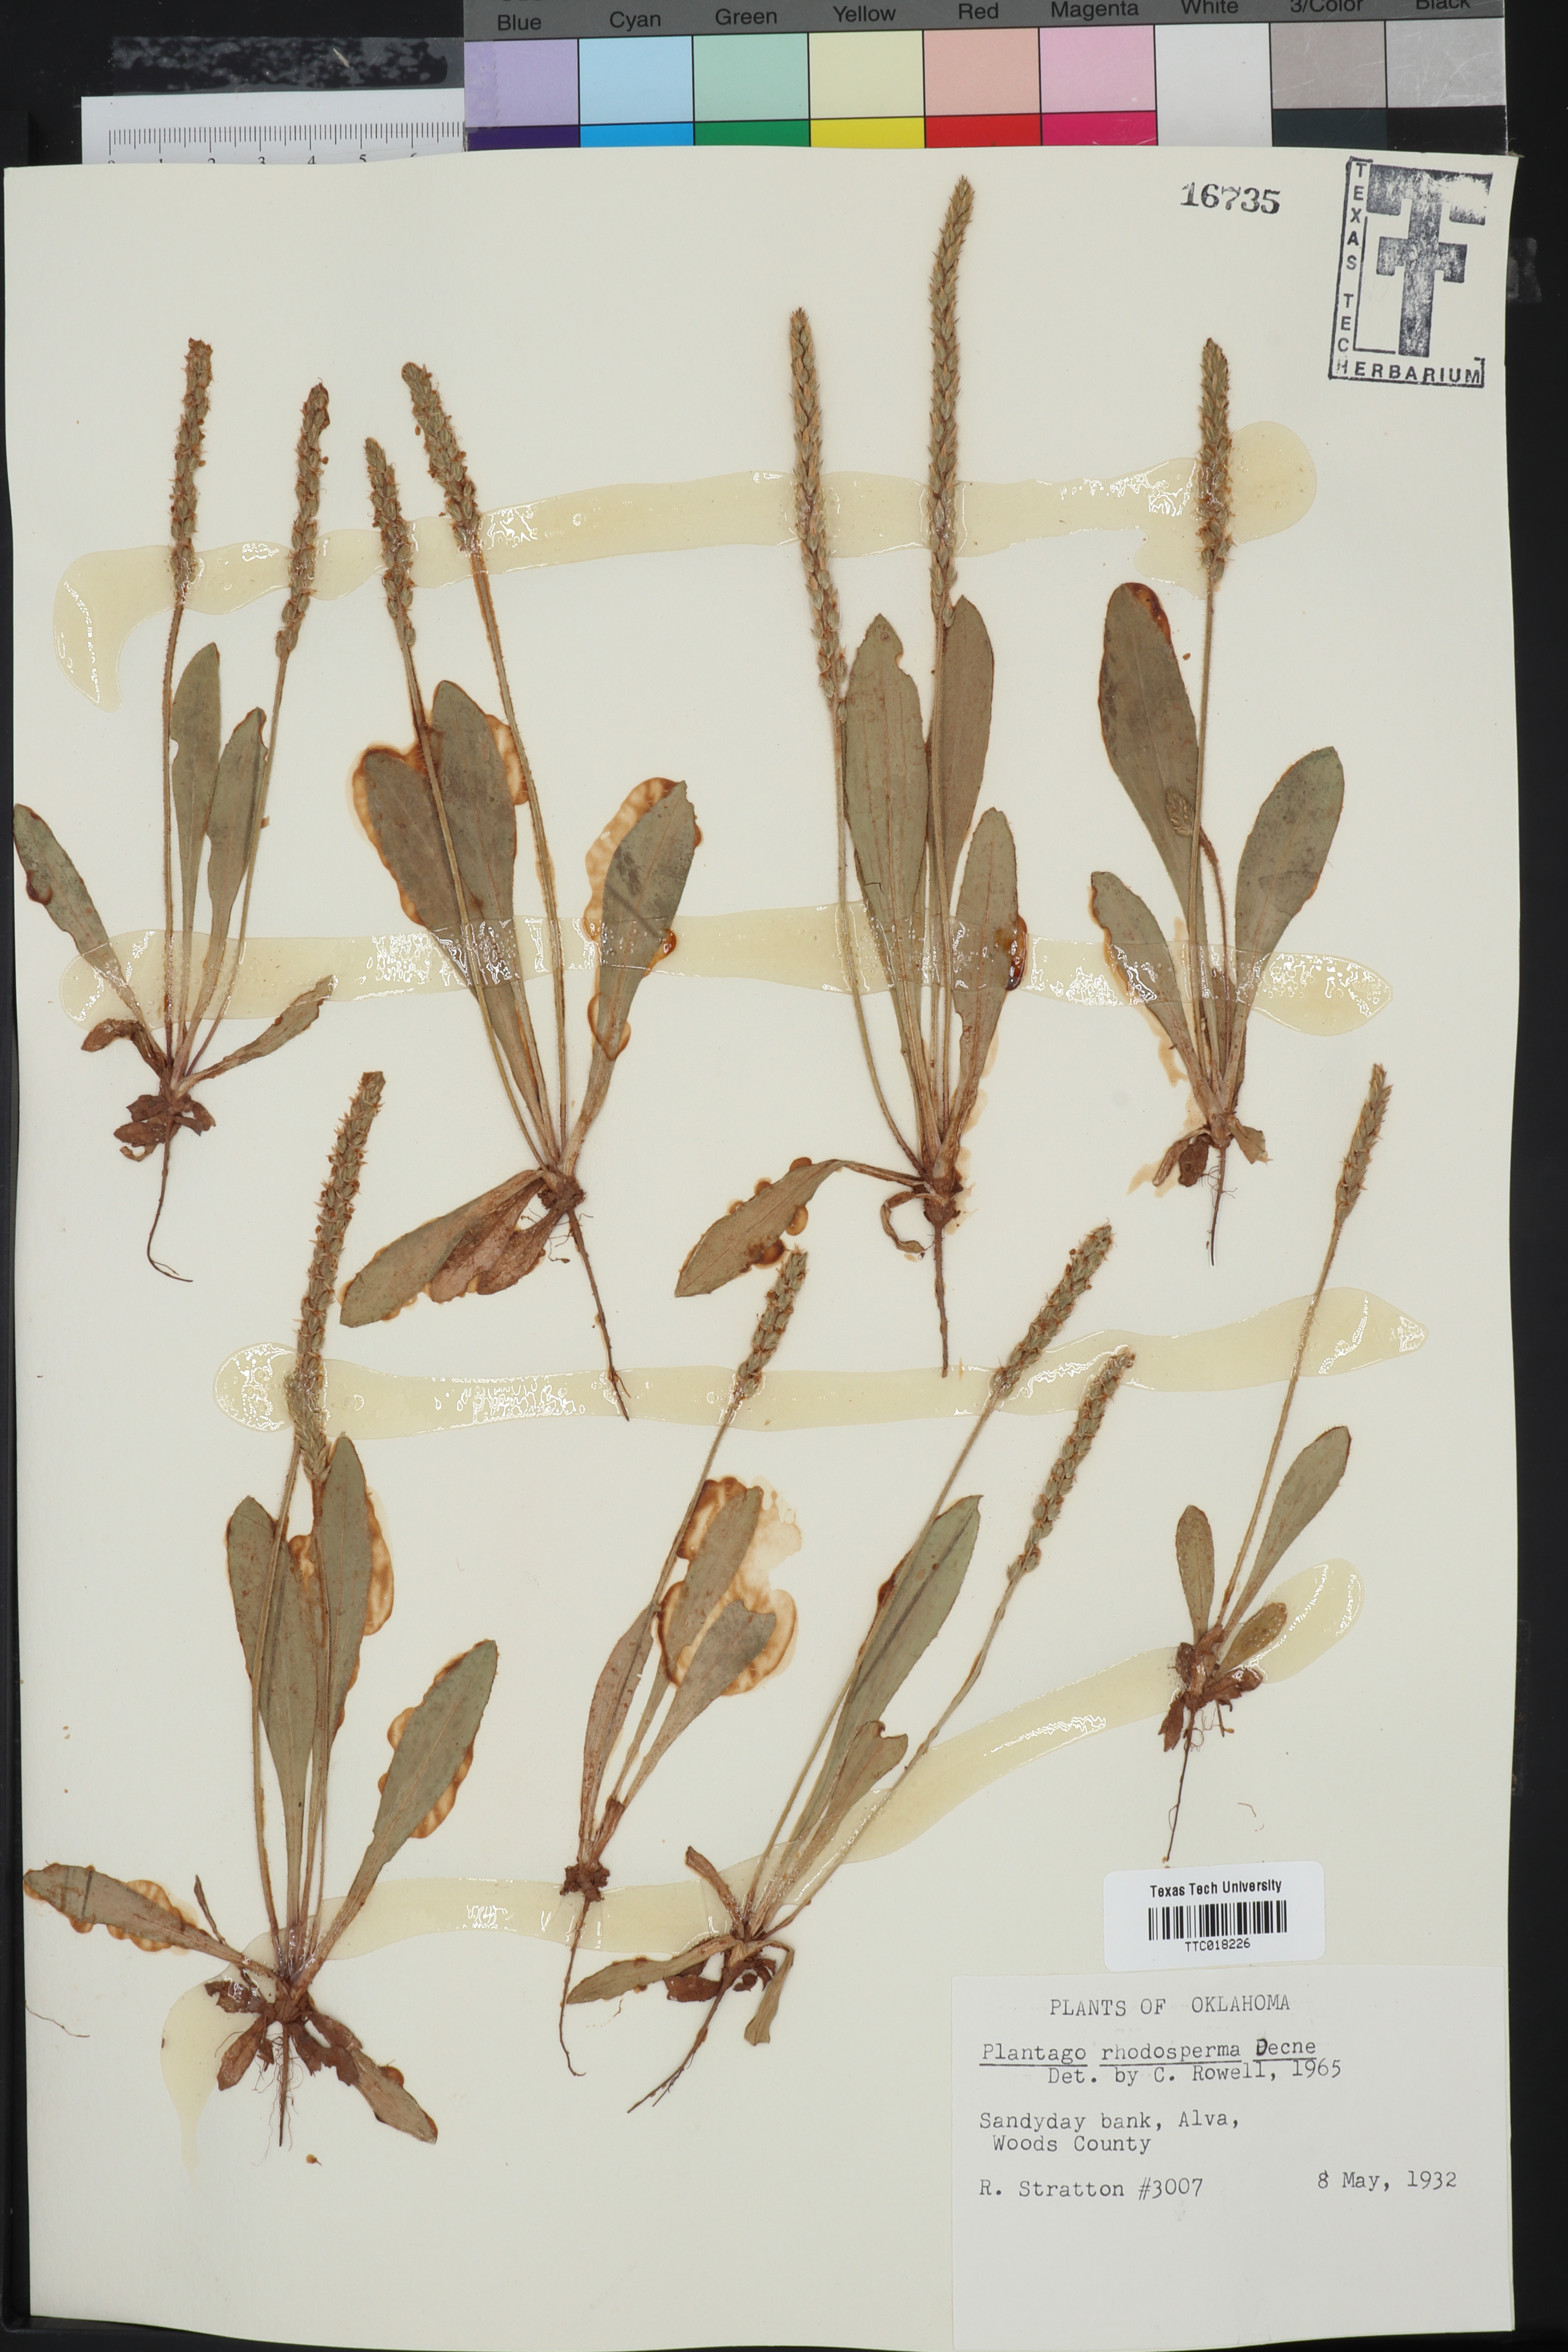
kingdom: Plantae
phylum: Tracheophyta
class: Magnoliopsida
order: Lamiales
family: Plantaginaceae
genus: Plantago
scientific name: Plantago rhodosperma
